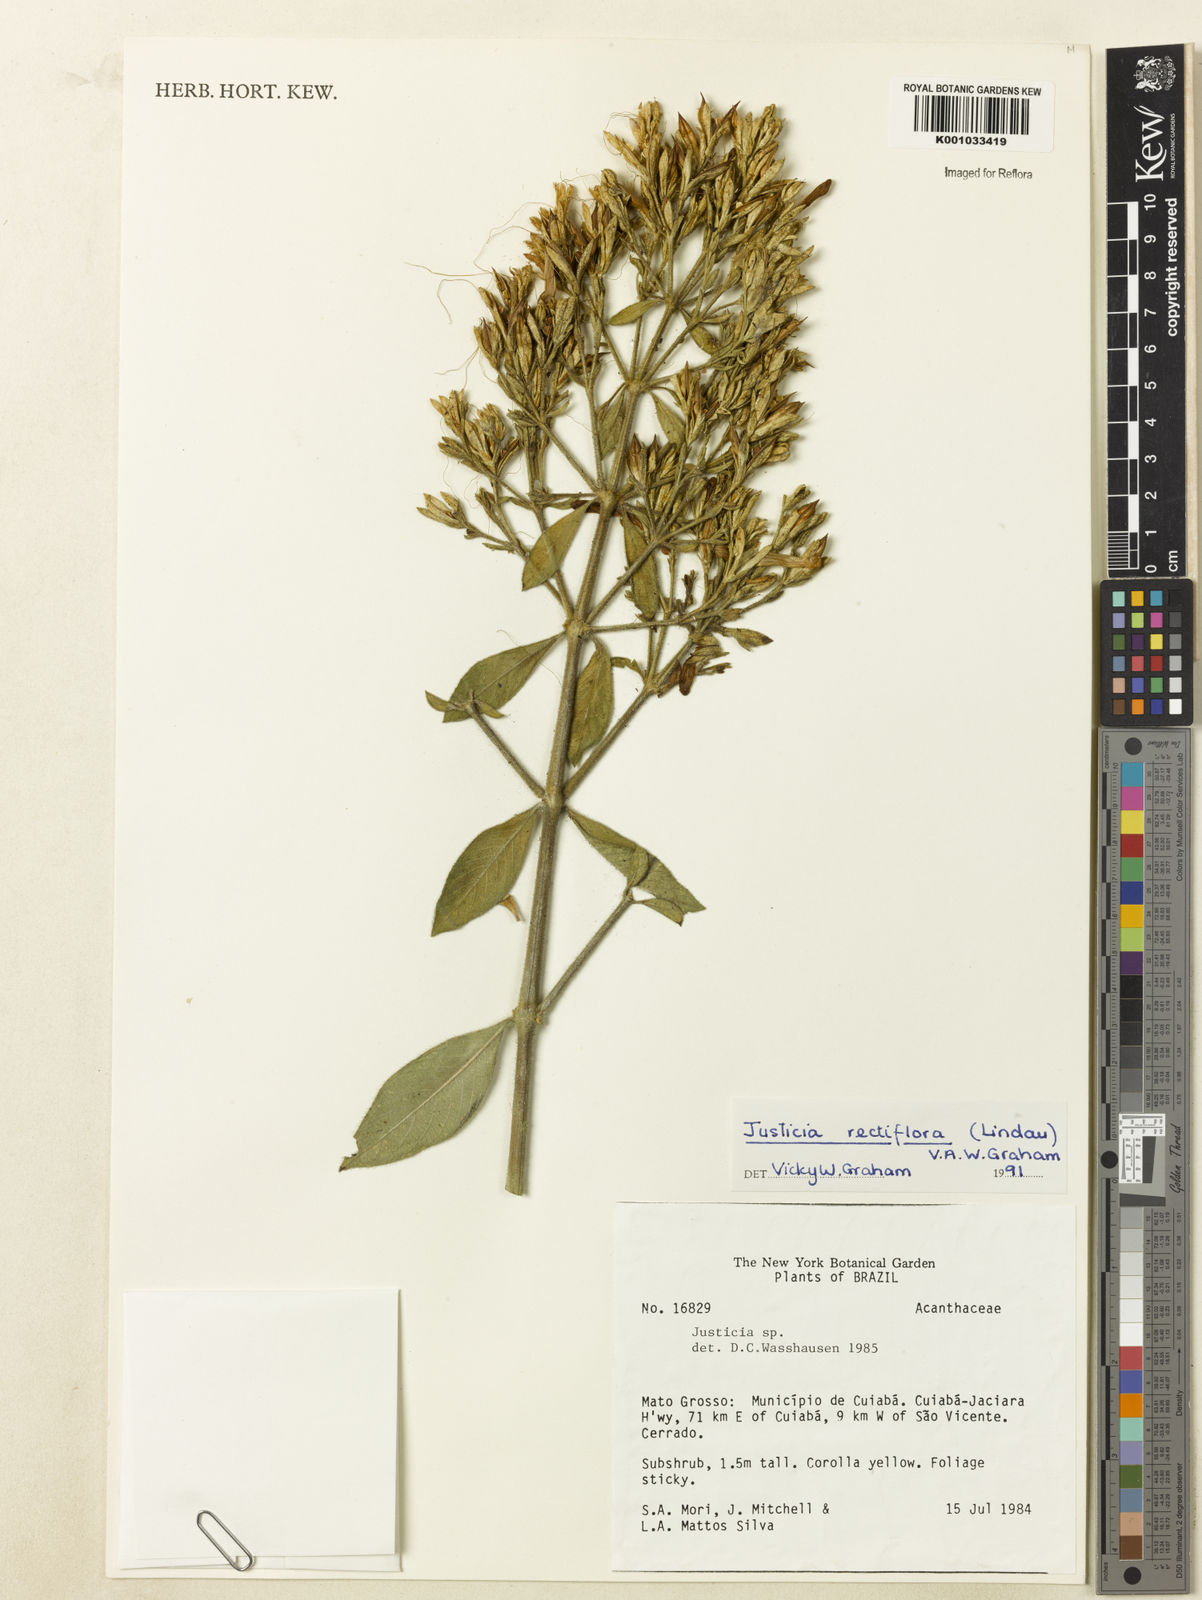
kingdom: Plantae
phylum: Tracheophyta
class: Magnoliopsida
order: Lamiales
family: Acanthaceae
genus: Justicia
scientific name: Justicia rectiflora
